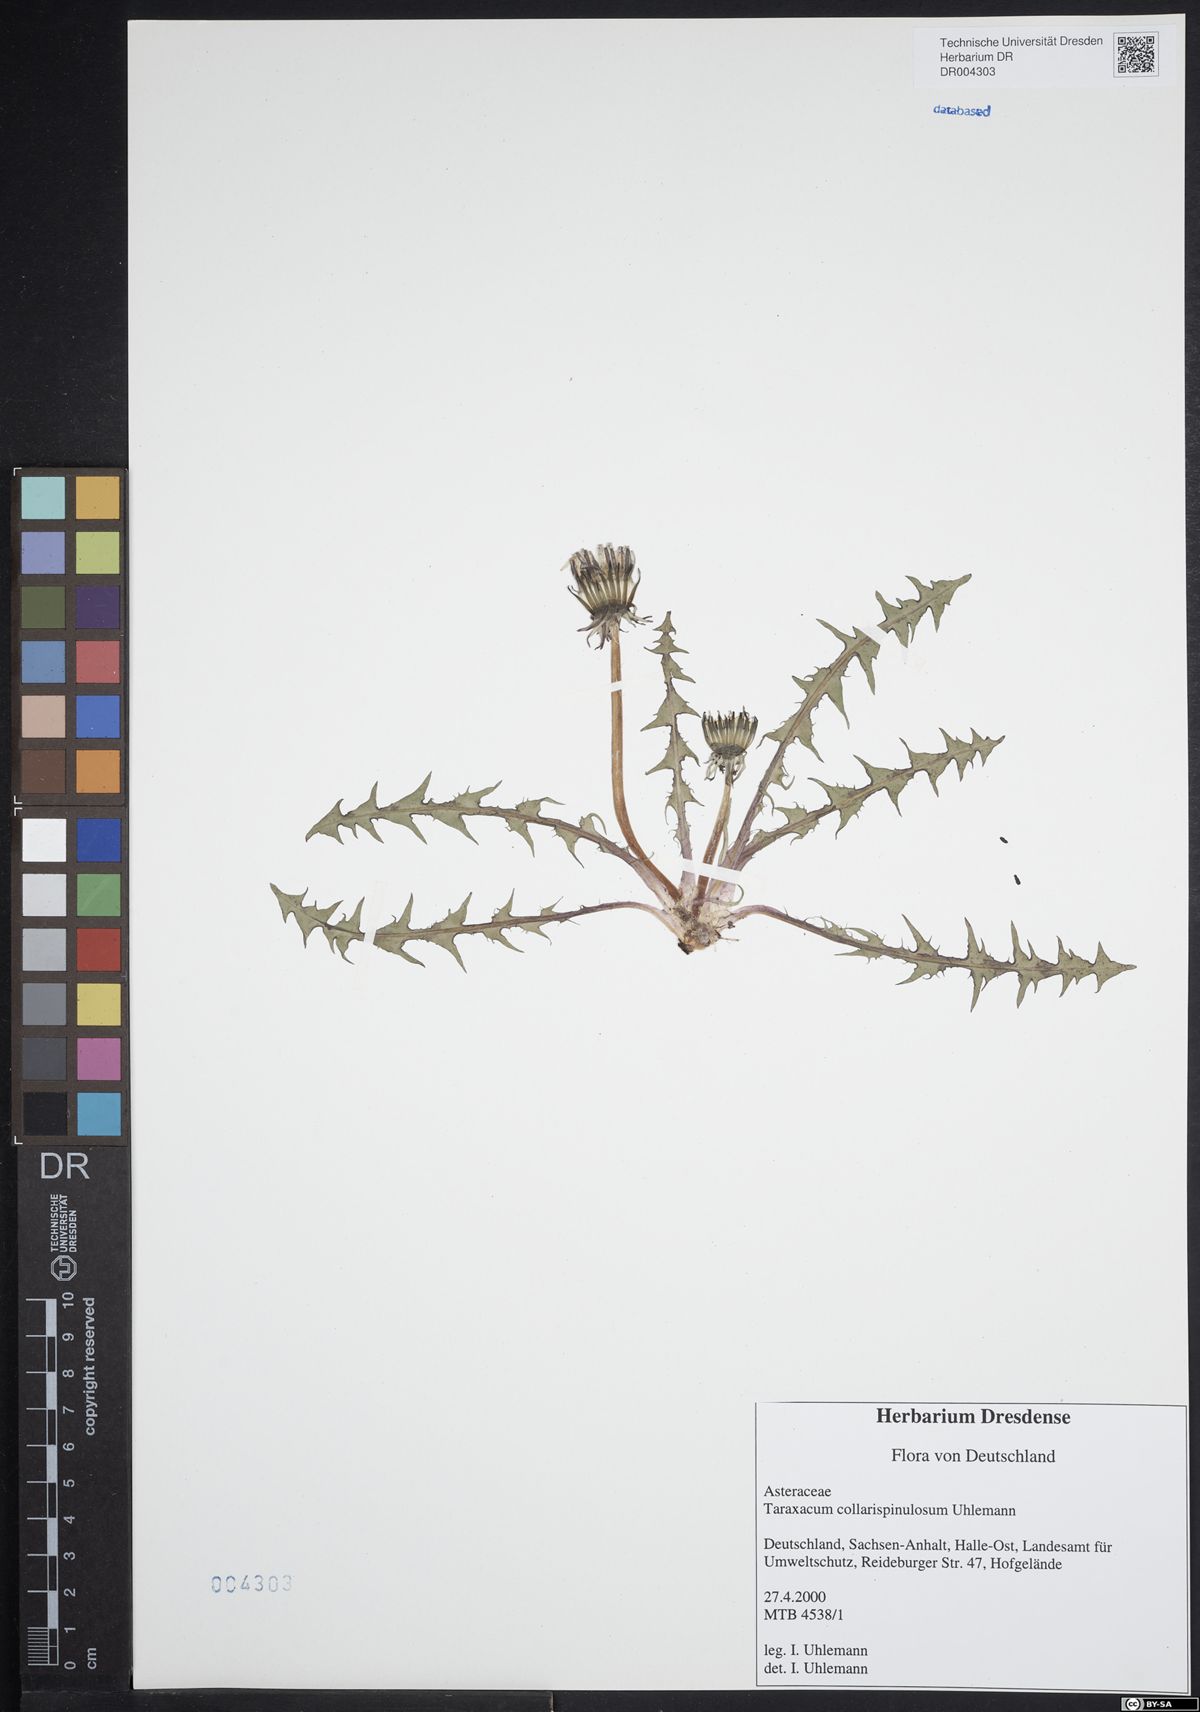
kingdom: Plantae
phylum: Tracheophyta
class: Magnoliopsida
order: Asterales
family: Asteraceae
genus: Taraxacum
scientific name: Taraxacum collarispinulosum
